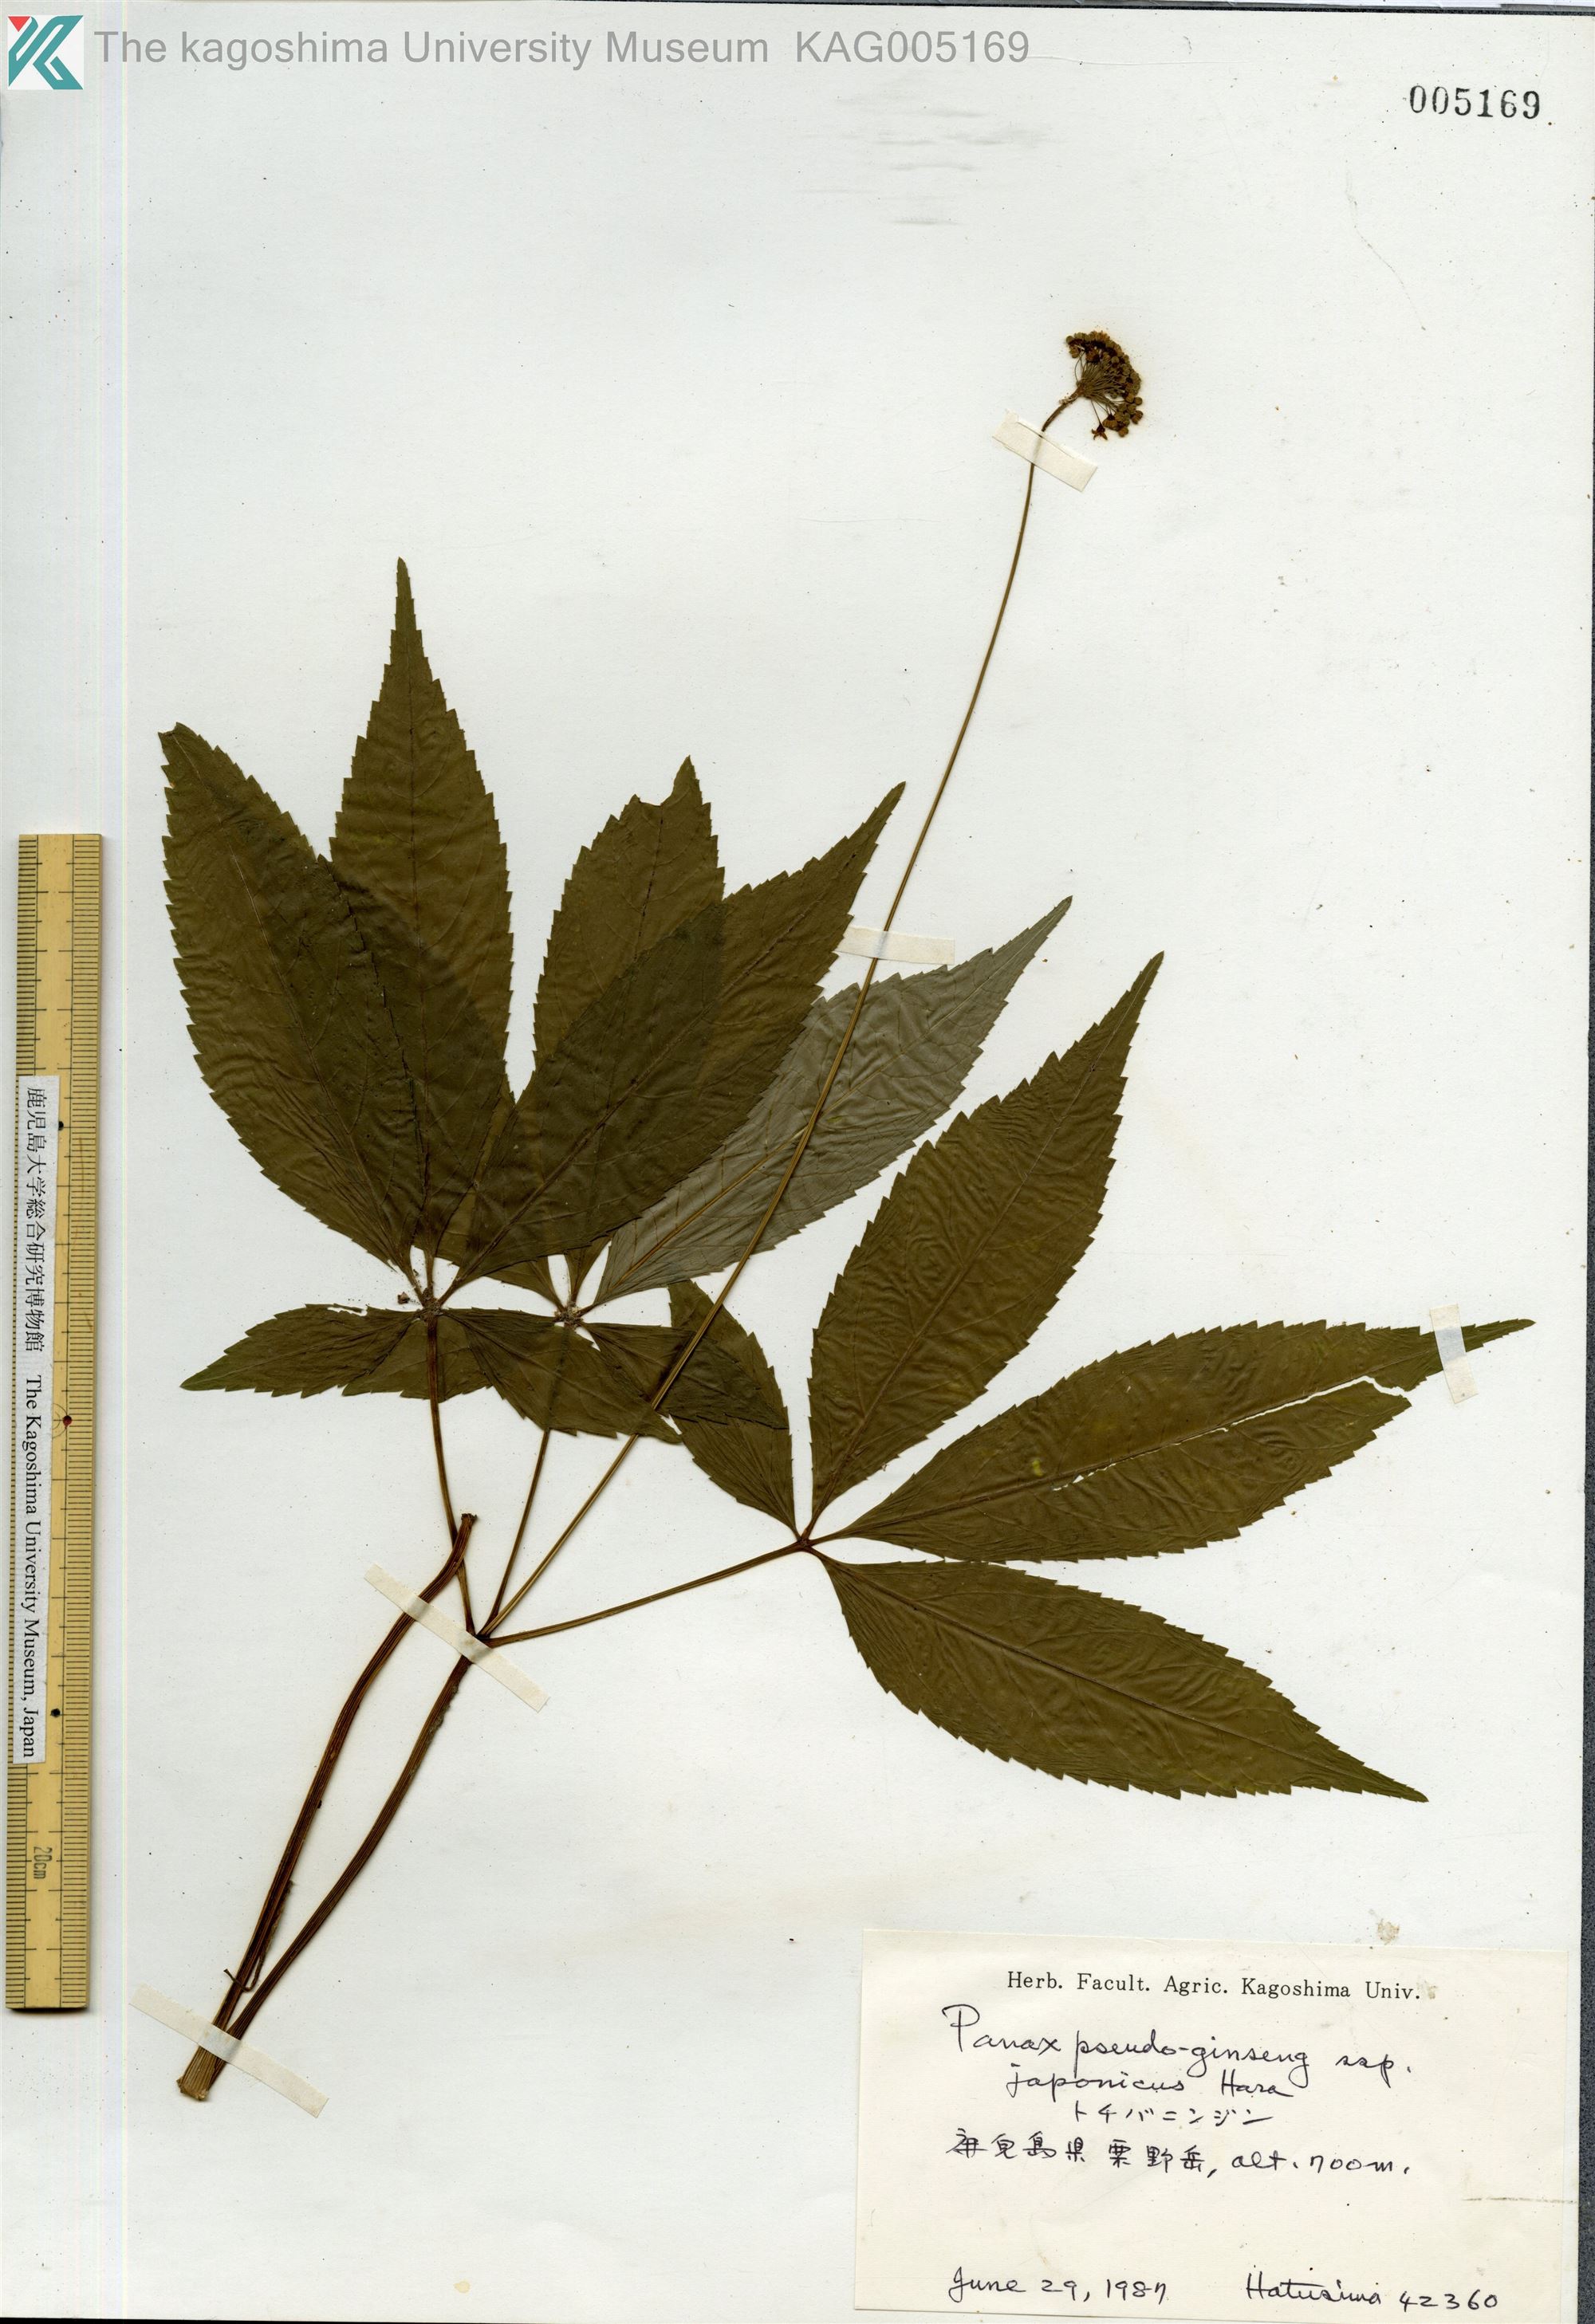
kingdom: Plantae
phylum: Tracheophyta
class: Magnoliopsida
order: Apiales
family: Araliaceae
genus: Panax
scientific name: Panax japonicus
